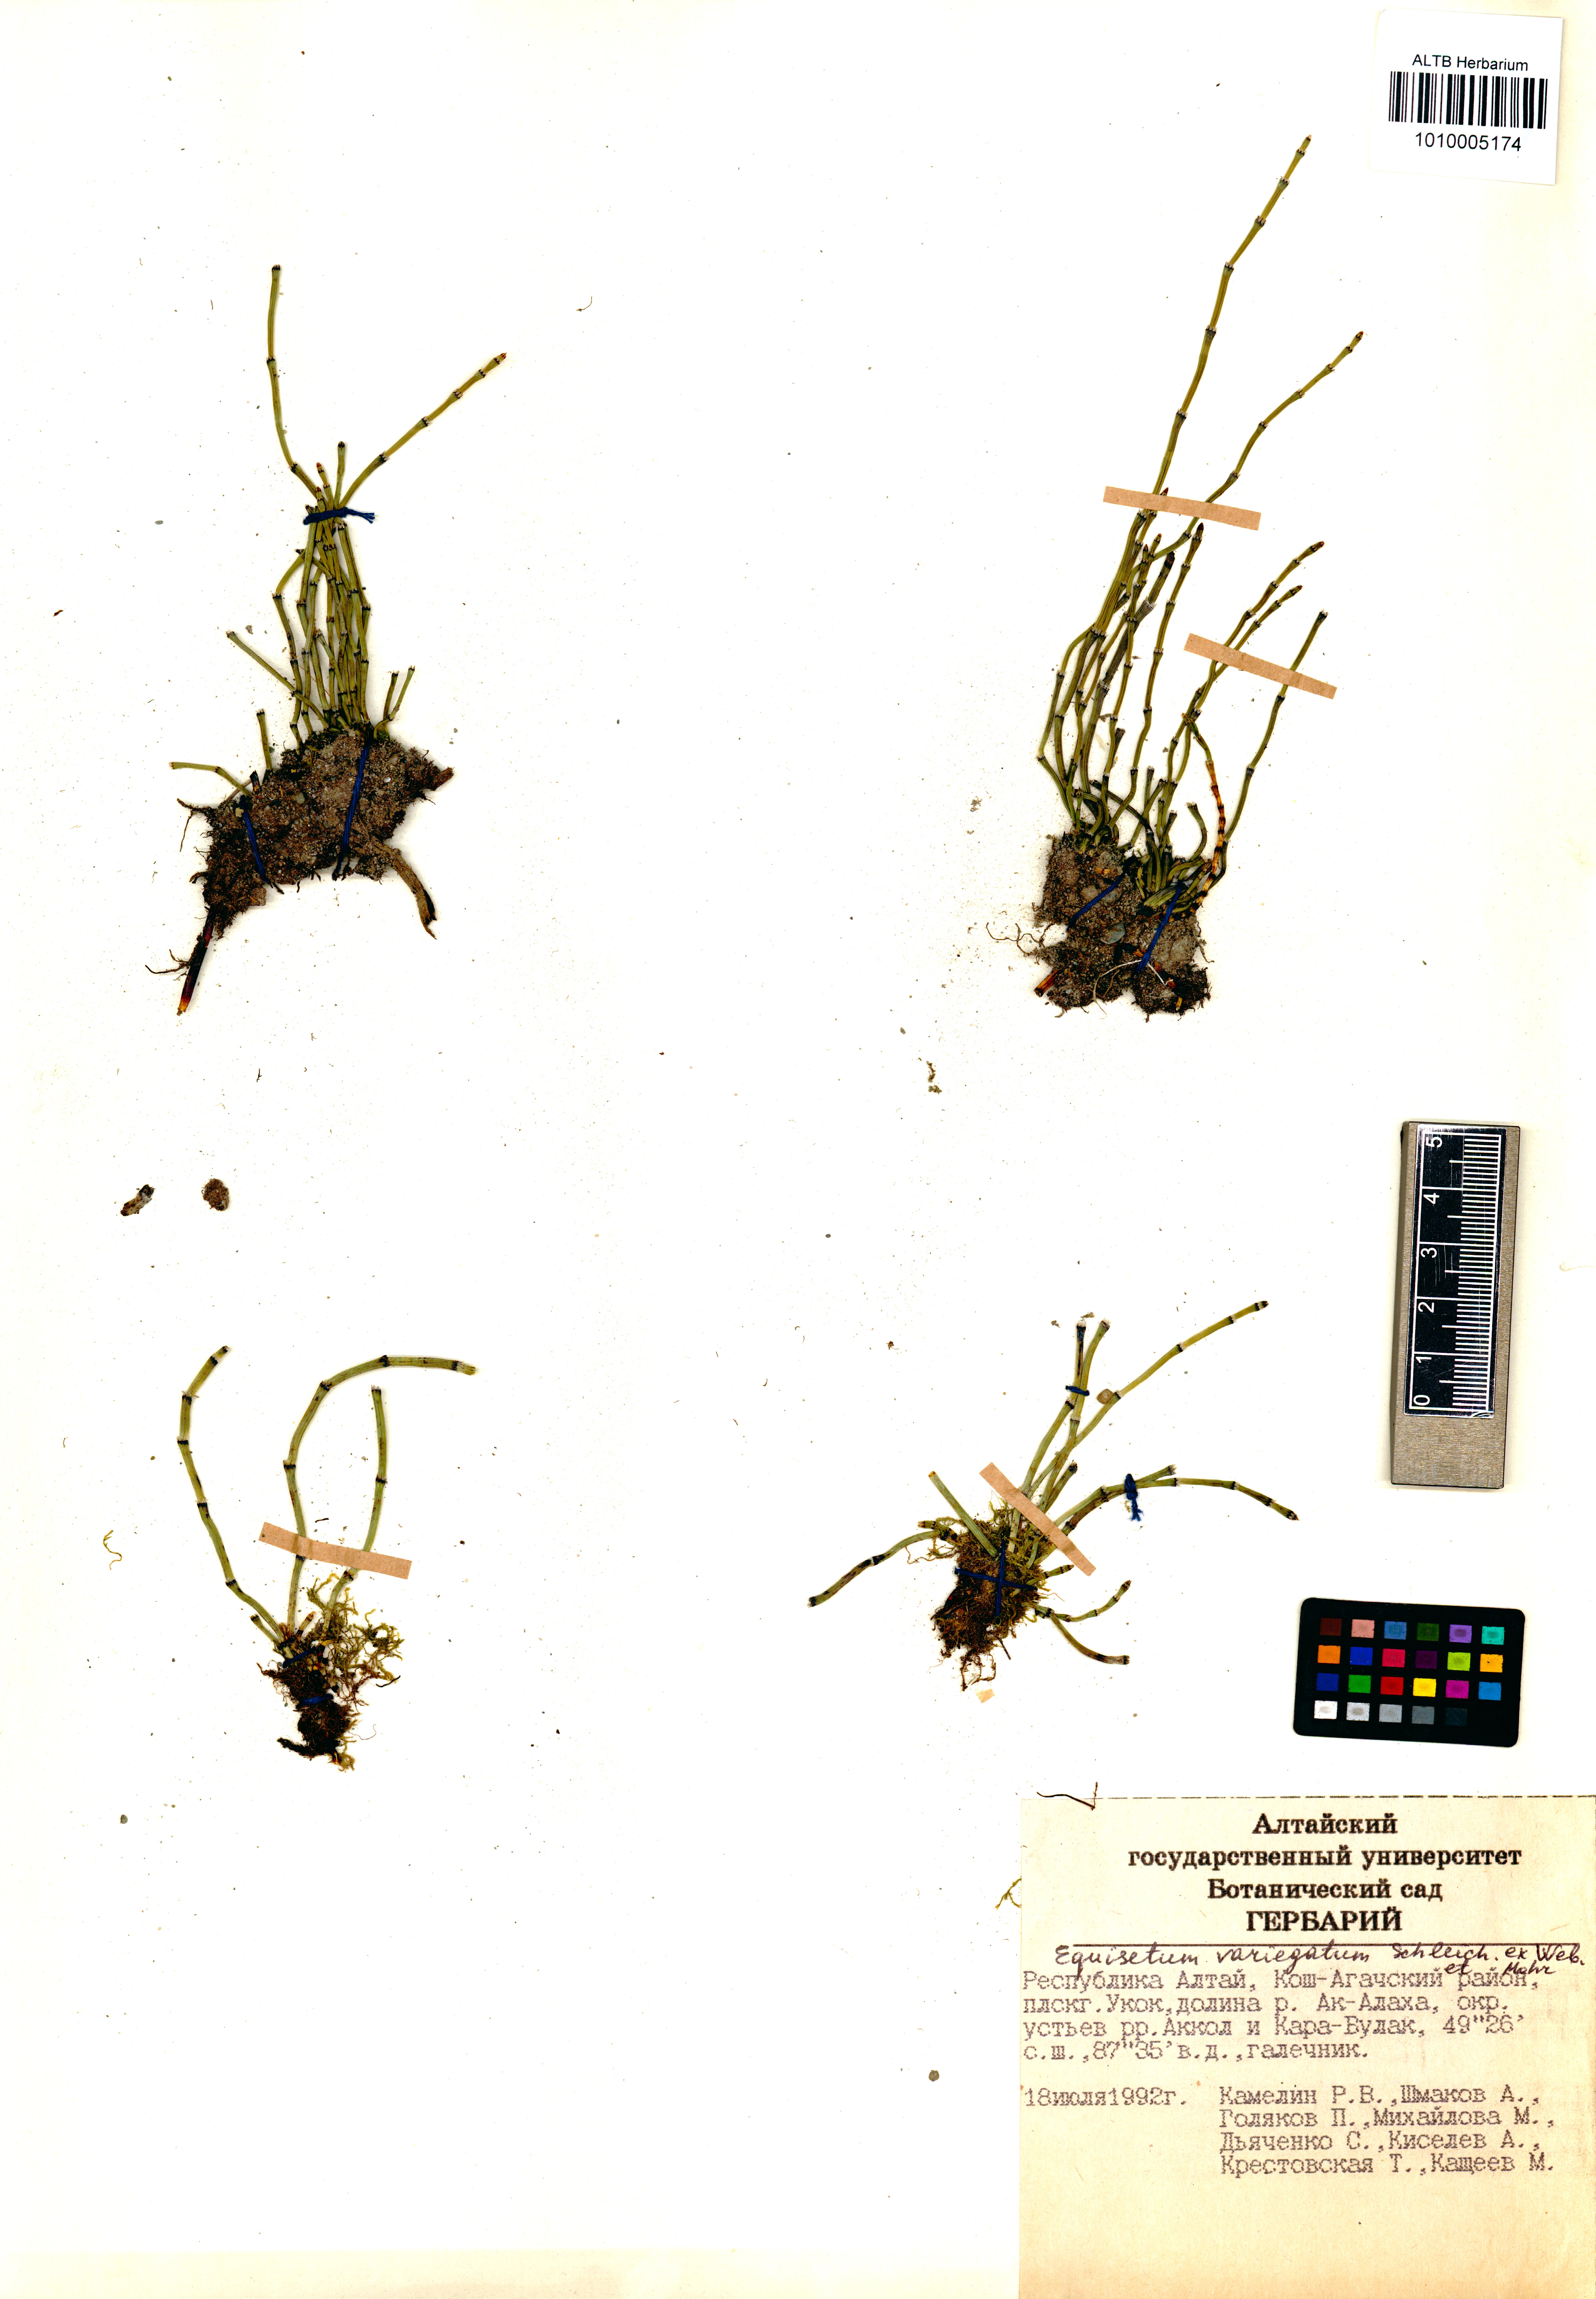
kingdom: Plantae
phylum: Tracheophyta
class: Polypodiopsida
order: Equisetales
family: Equisetaceae
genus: Equisetum
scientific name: Equisetum variegatum
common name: Variegated horsetail
